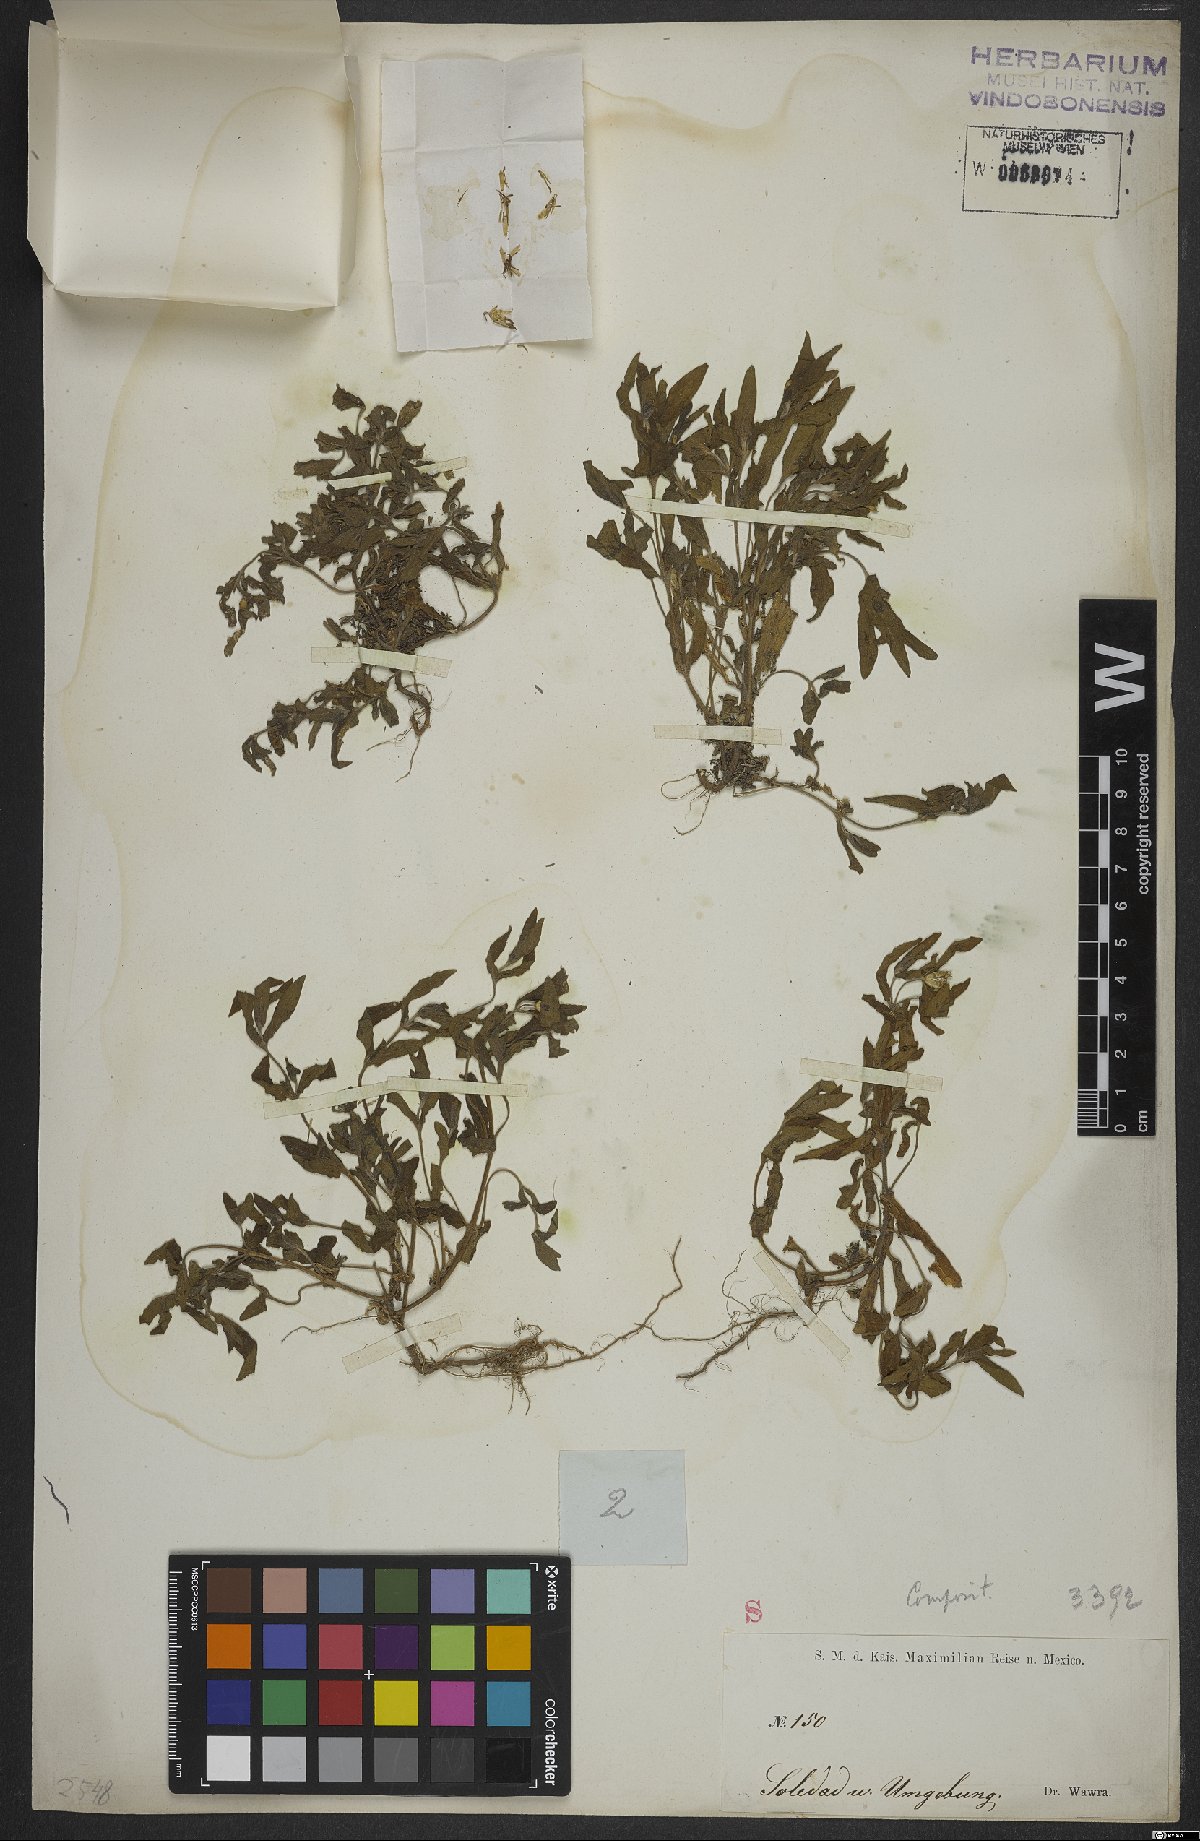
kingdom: Plantae
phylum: Tracheophyta
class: Magnoliopsida
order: Asterales
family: Asteraceae
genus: Trichospira
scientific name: Trichospira
